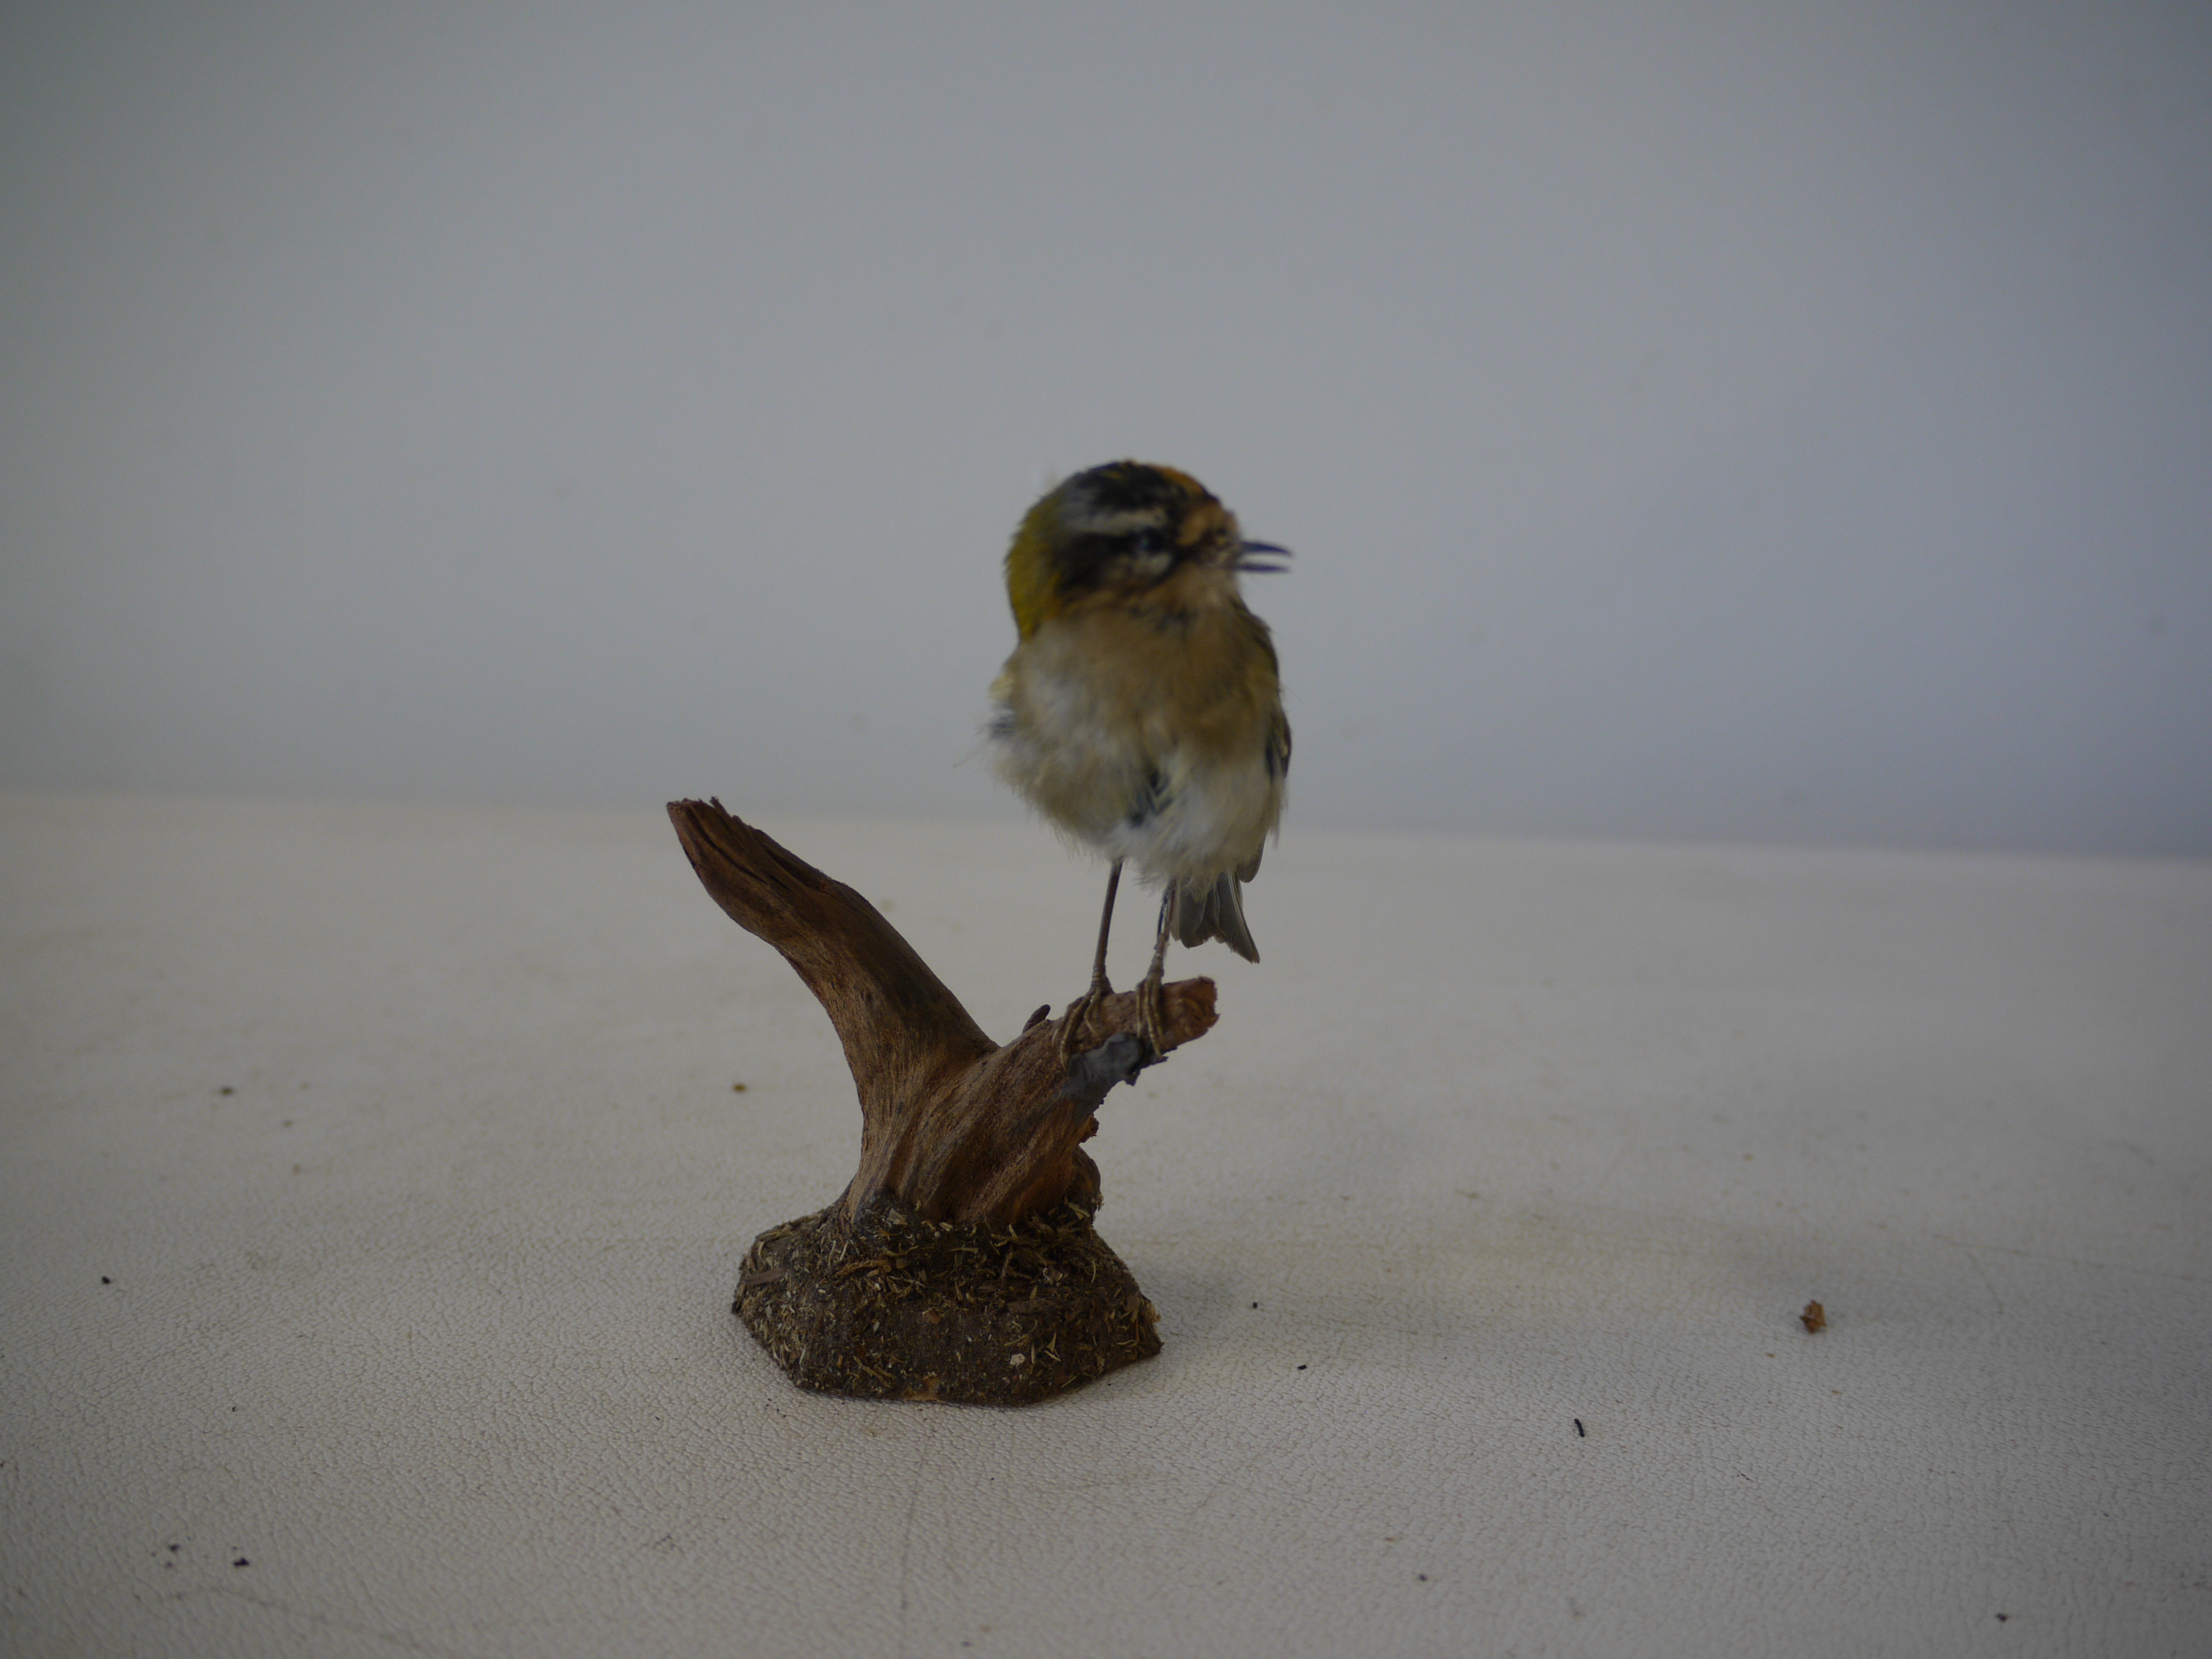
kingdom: Animalia
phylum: Chordata
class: Aves
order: Passeriformes
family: Regulidae
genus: Regulus
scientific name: Regulus regulus
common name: Goldcrest
